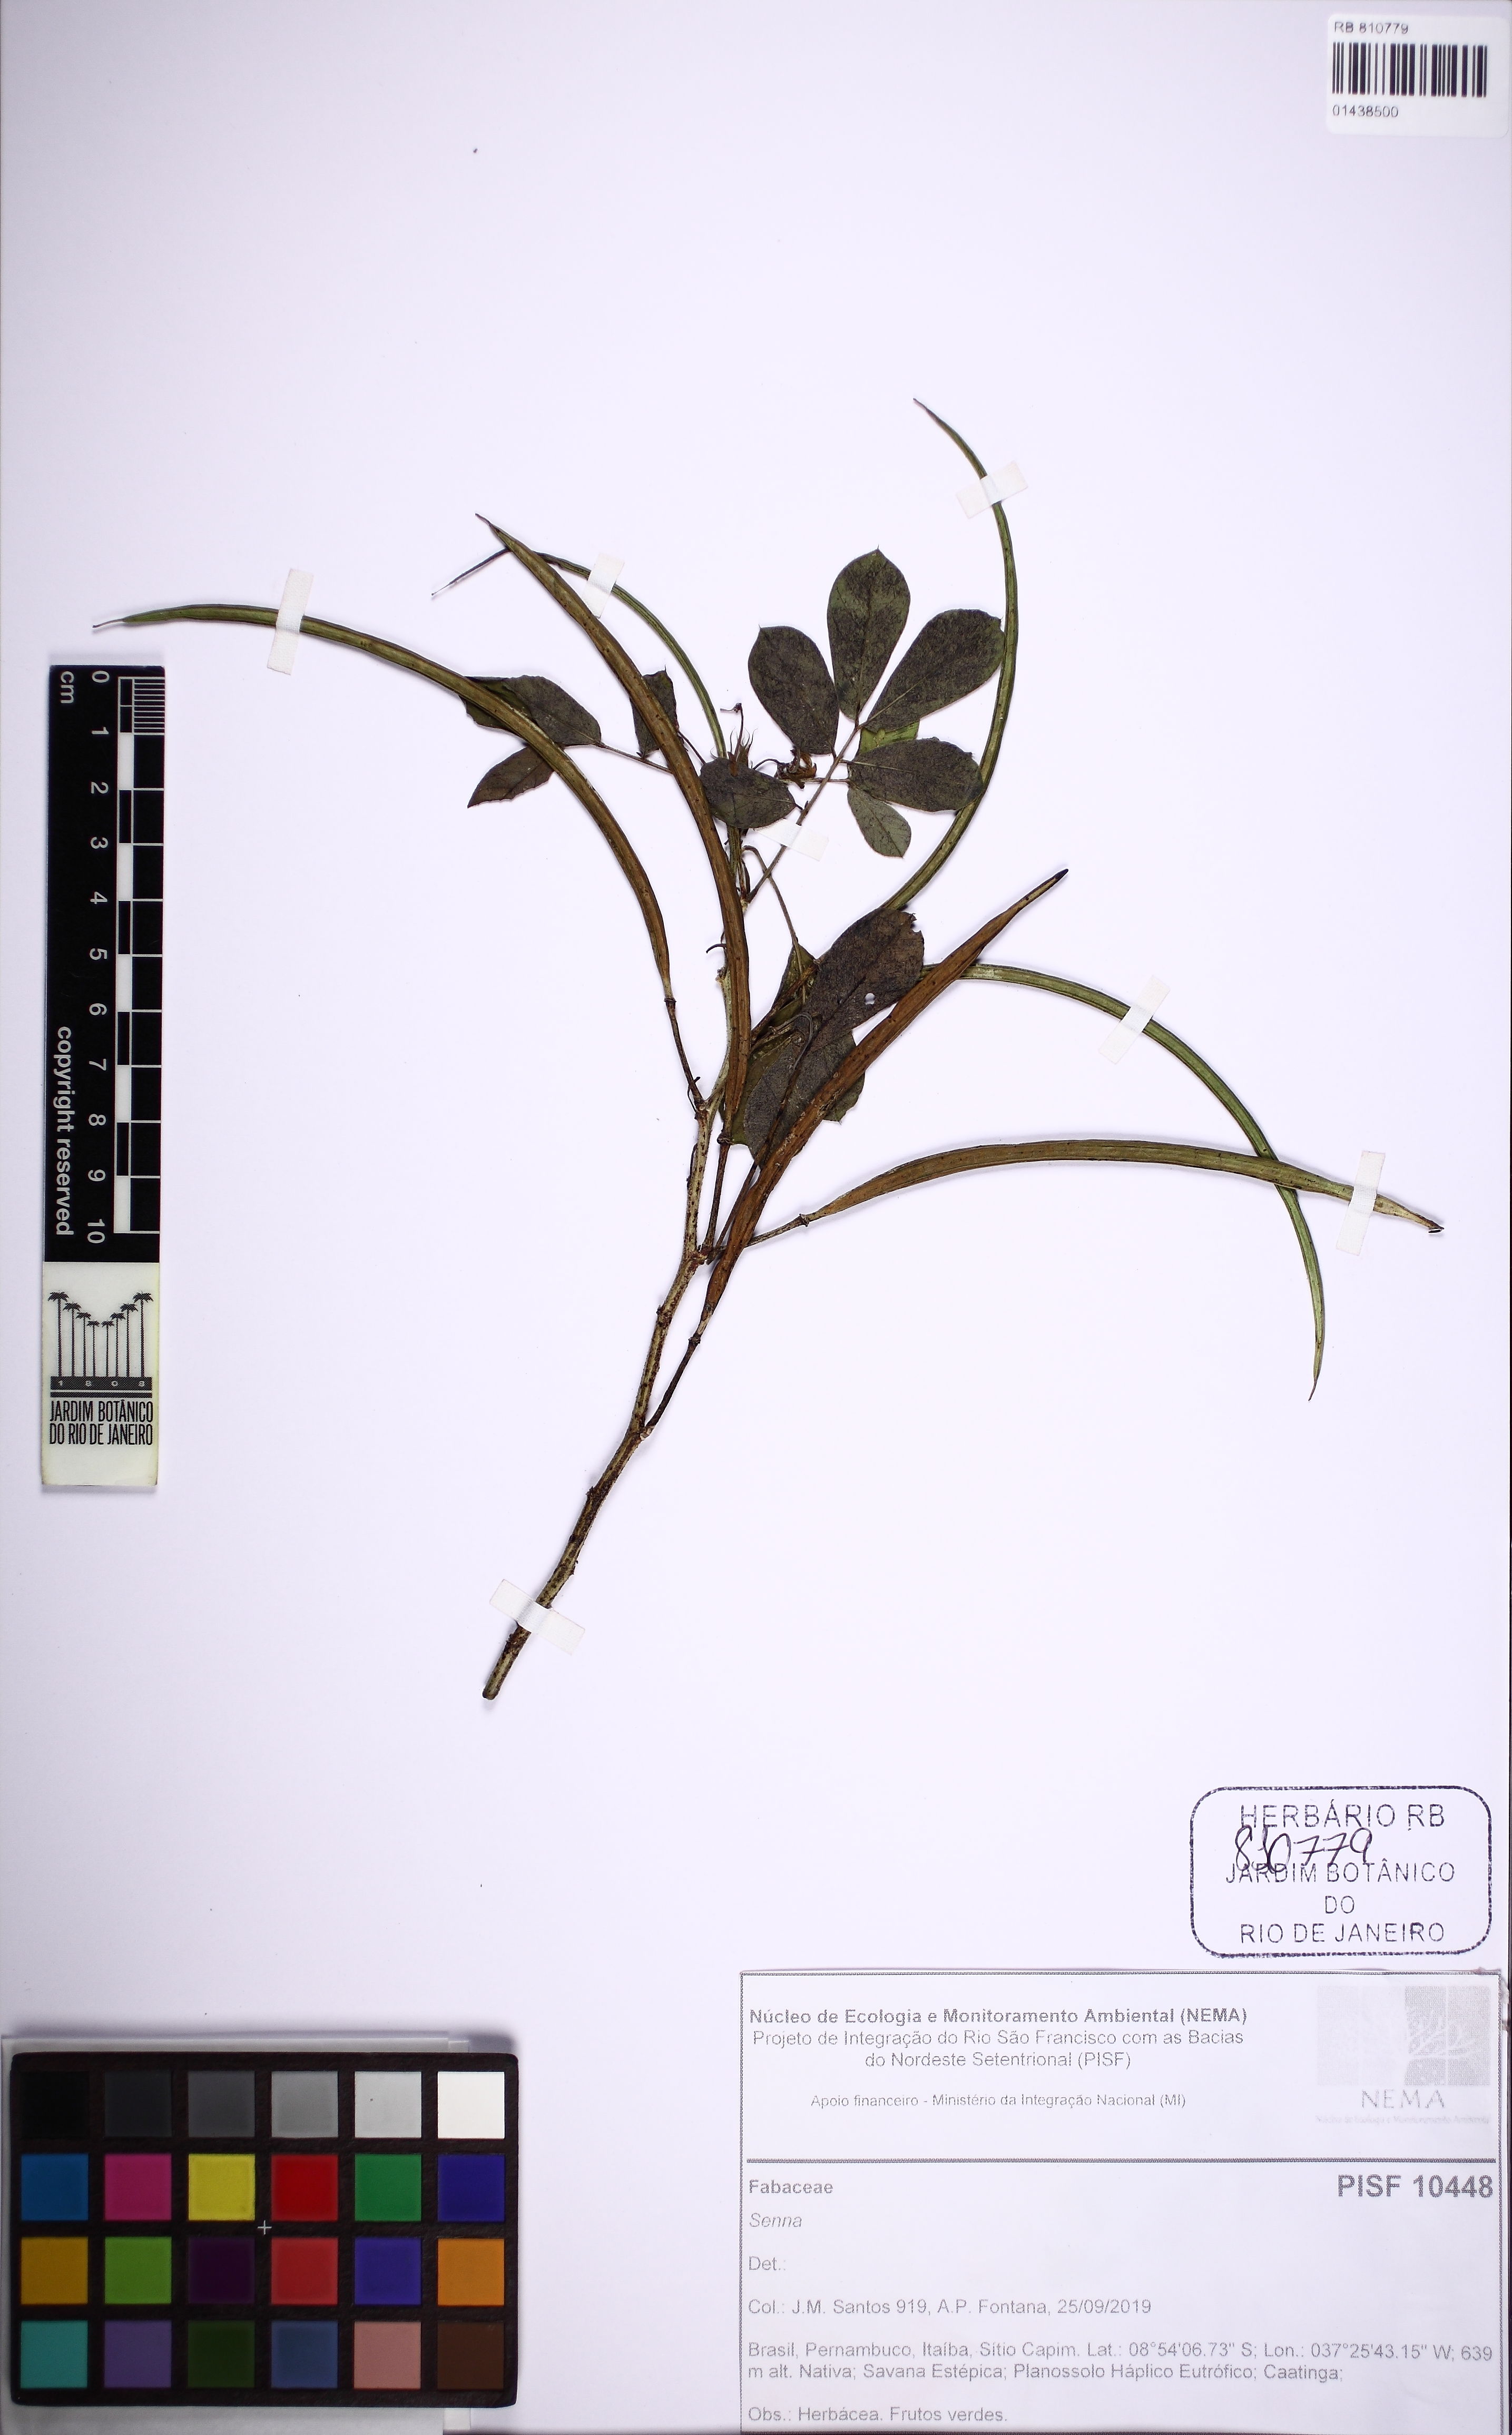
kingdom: Plantae
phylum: Tracheophyta
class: Magnoliopsida
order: Fabales
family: Fabaceae
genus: Senna
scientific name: Senna obtusifolia
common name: Java-bean
